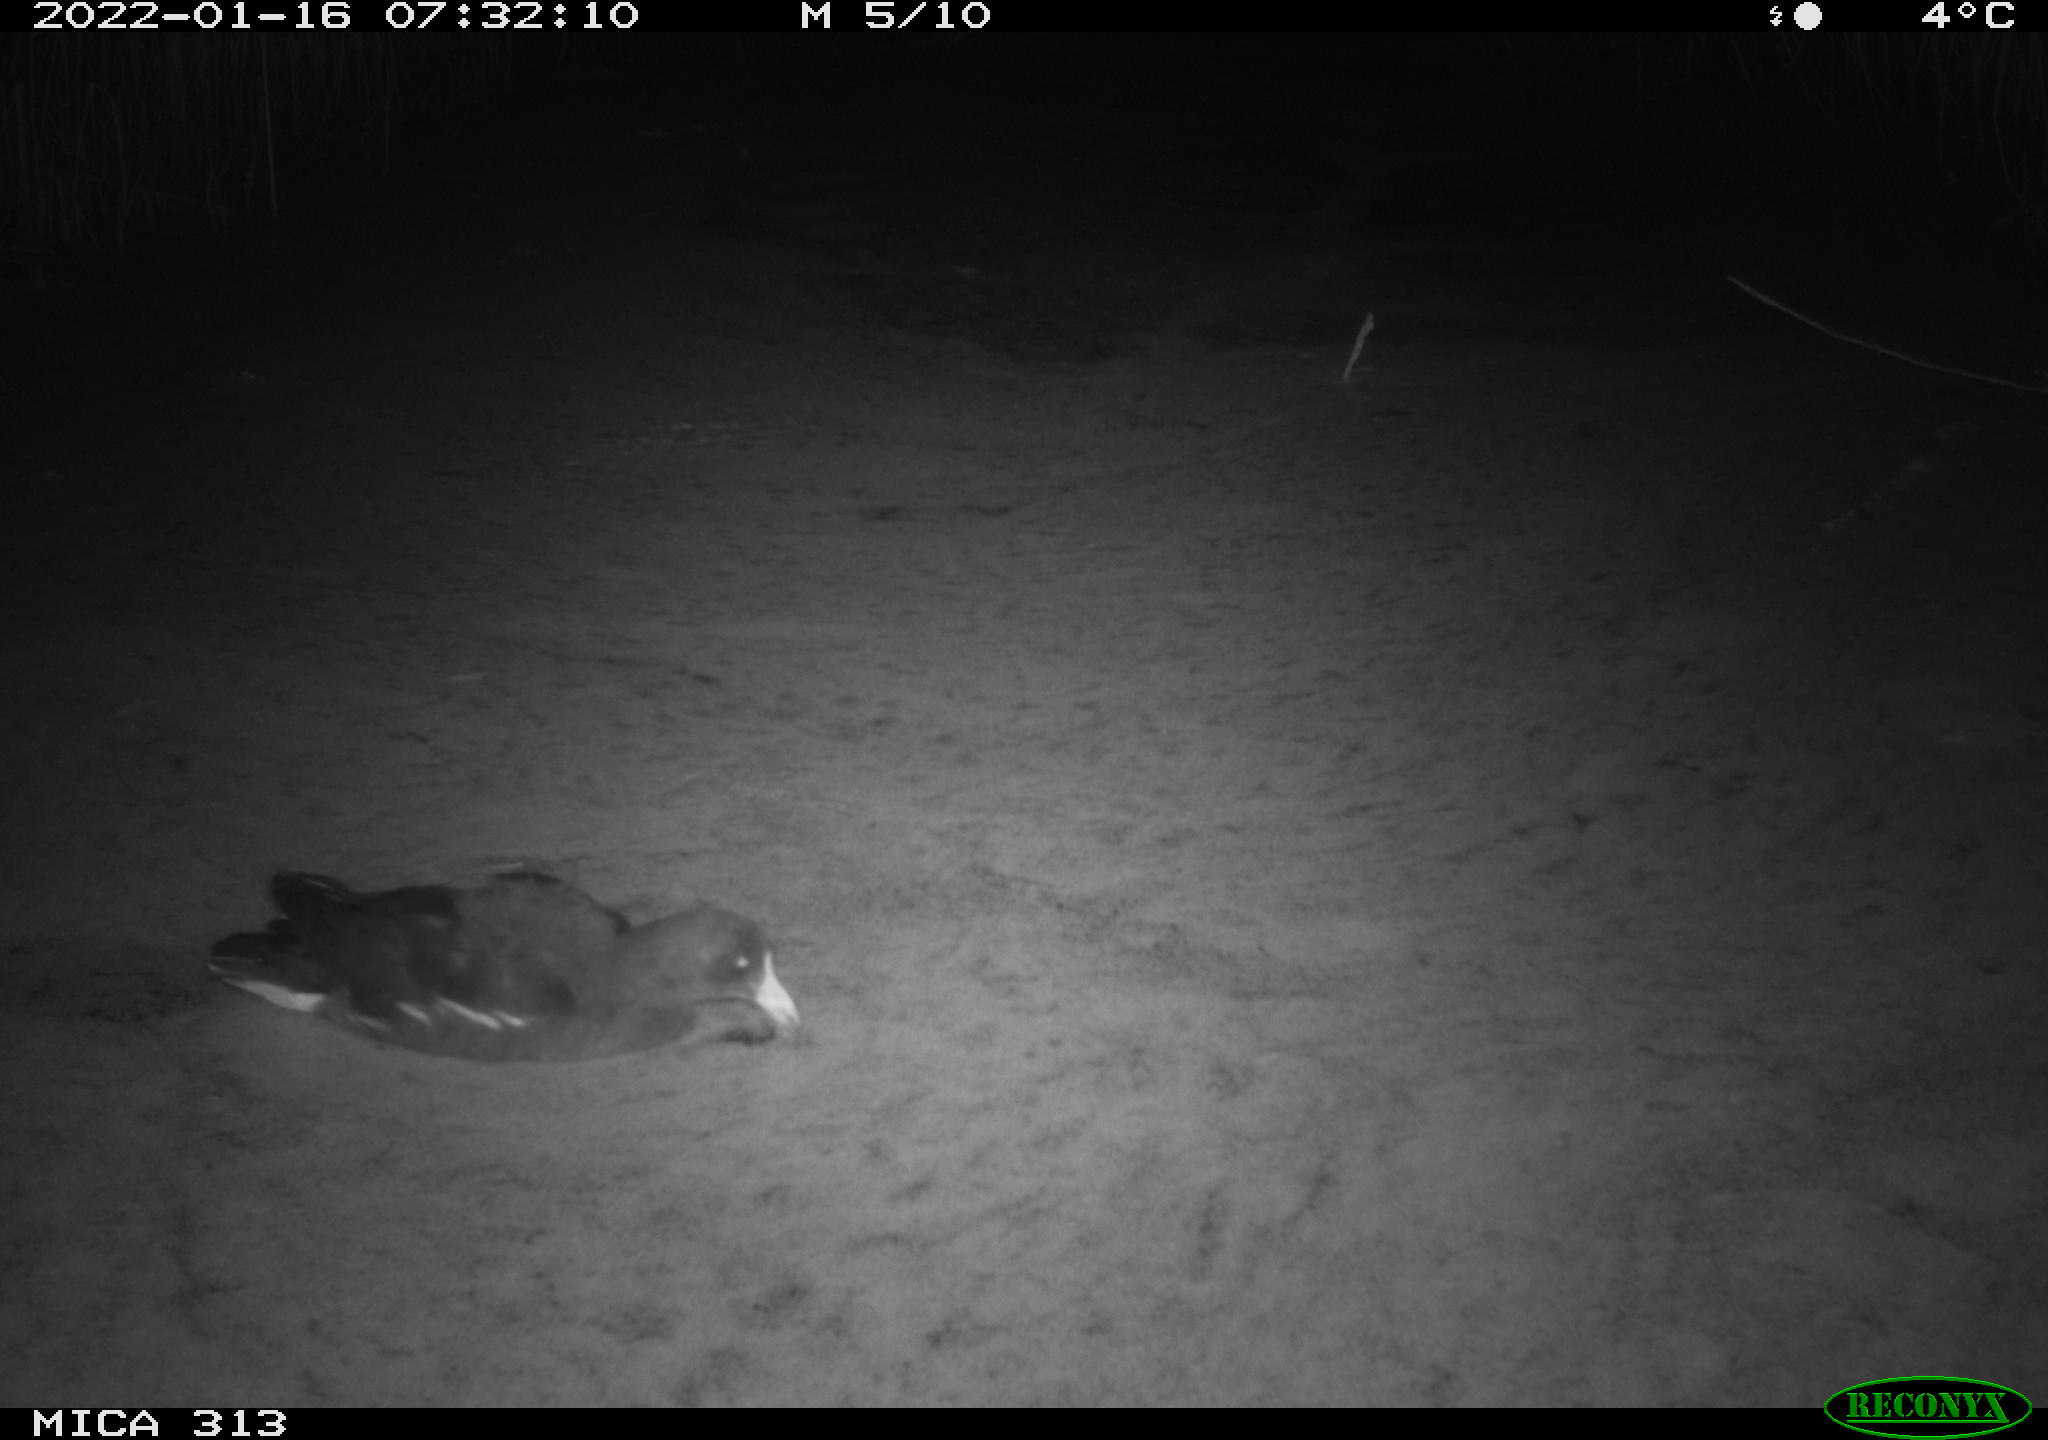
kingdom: Animalia
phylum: Chordata
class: Aves
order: Anseriformes
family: Anatidae
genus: Anas
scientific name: Anas
